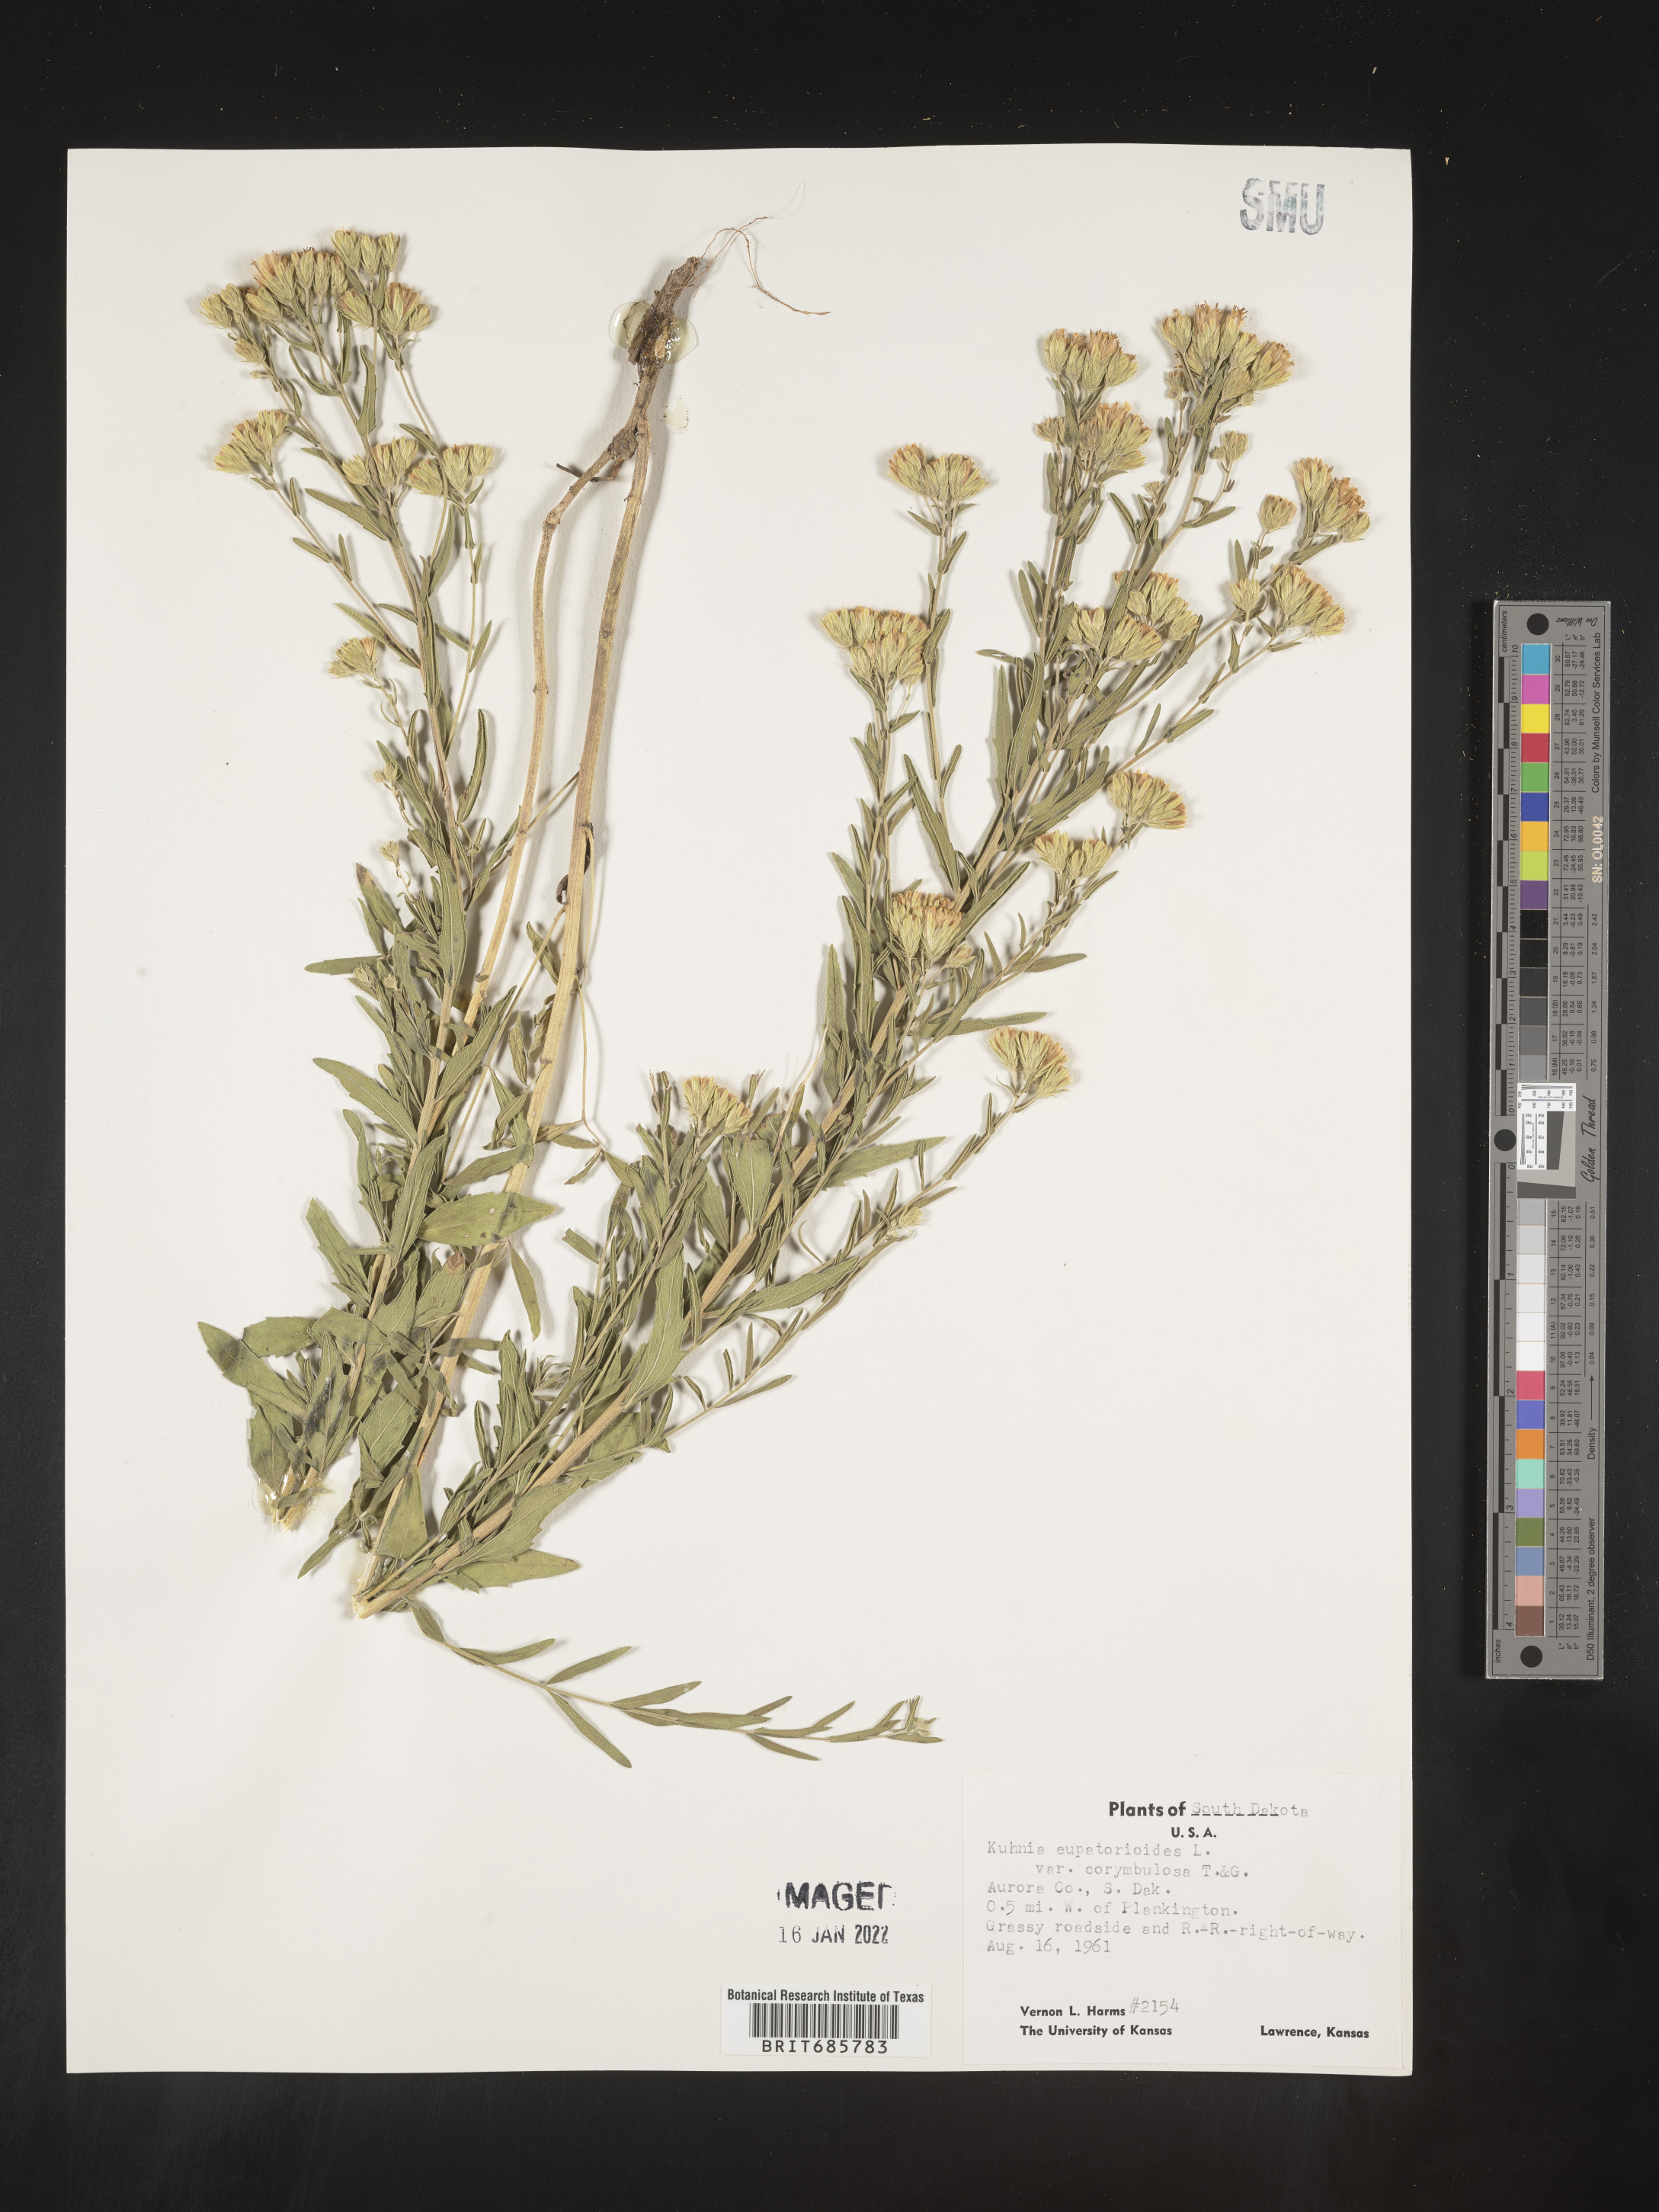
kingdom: Plantae
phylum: Tracheophyta
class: Magnoliopsida
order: Asterales
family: Asteraceae
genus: Brickellia
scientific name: Brickellia eupatorioides
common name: False boneset
